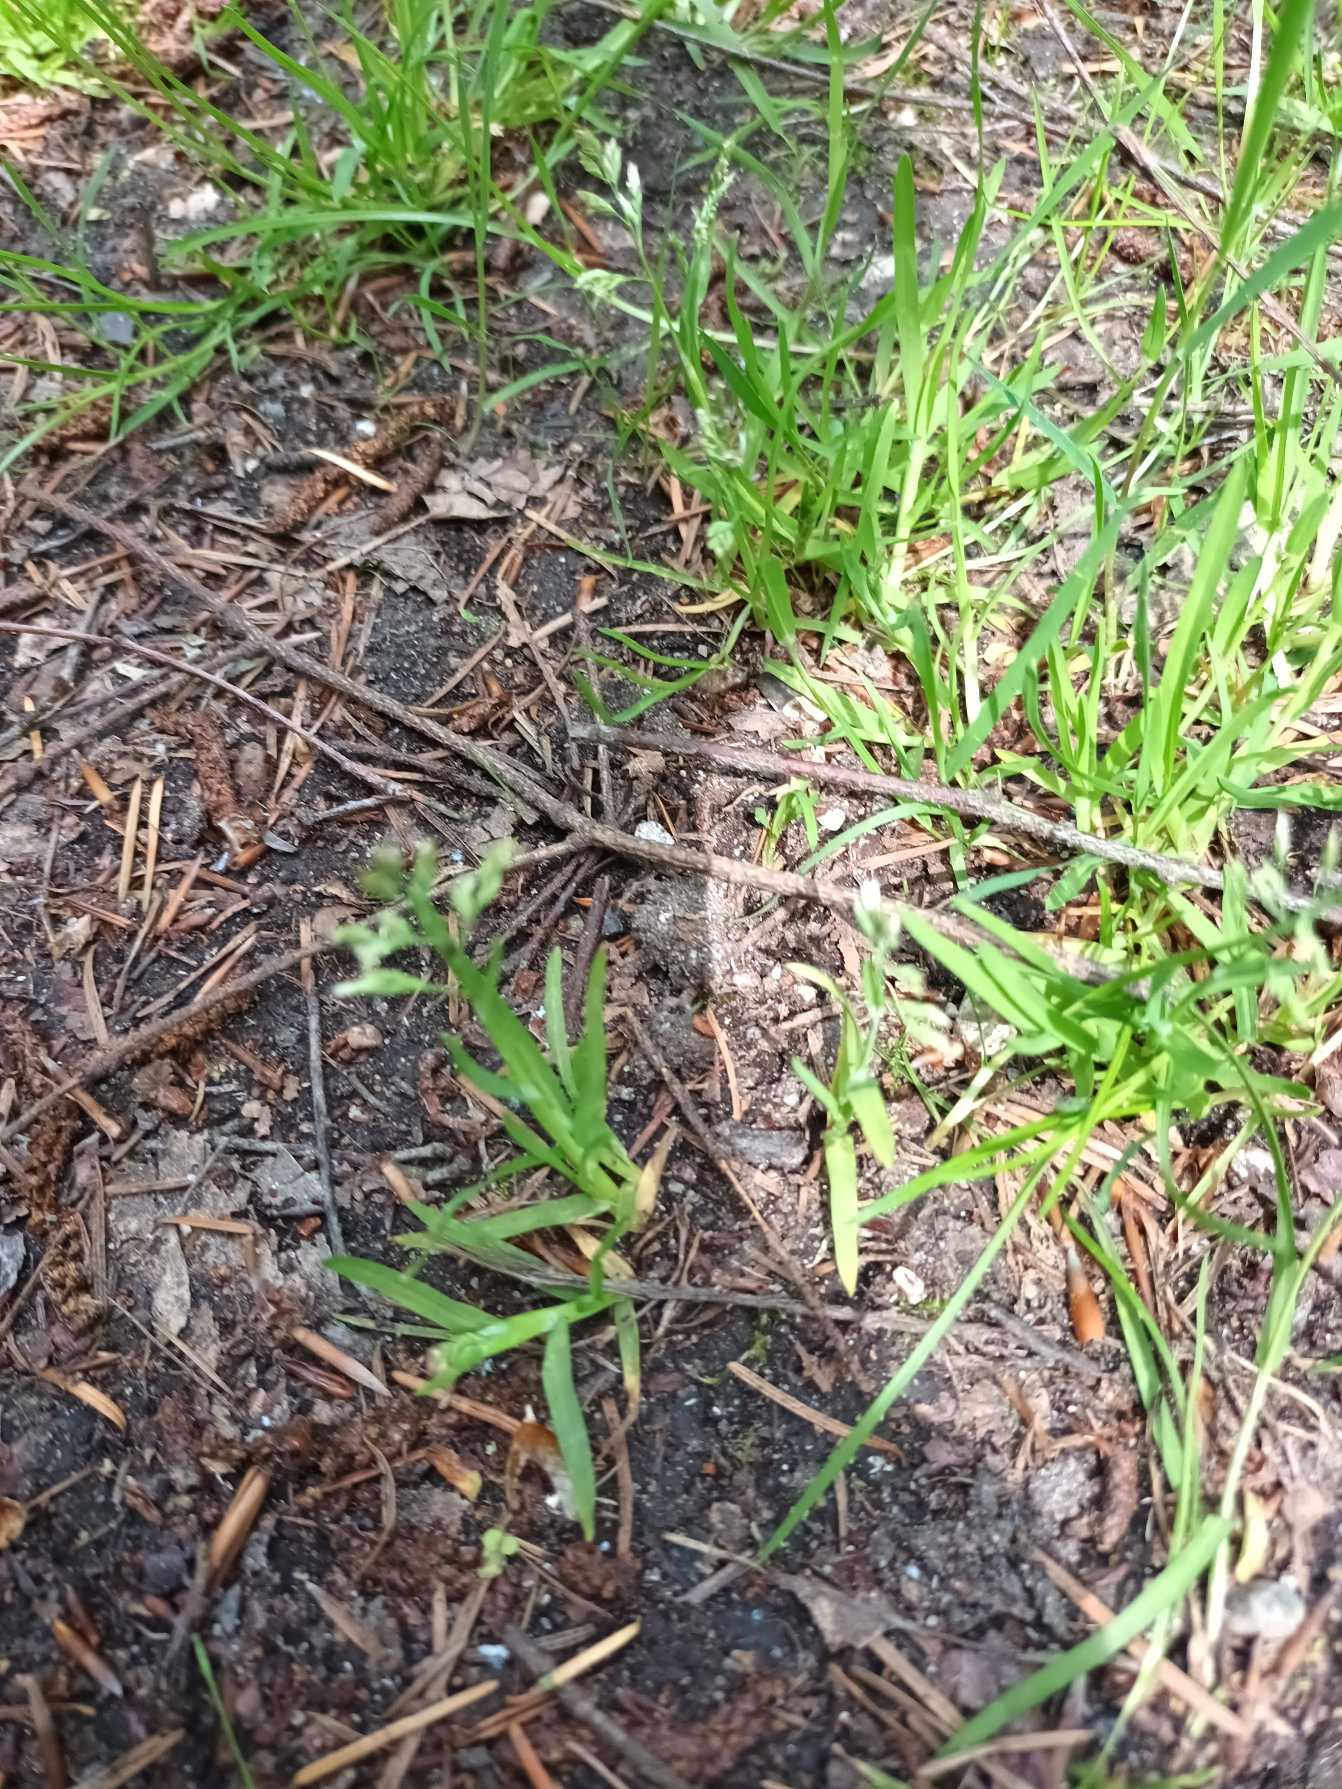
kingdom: Plantae
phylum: Tracheophyta
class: Liliopsida
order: Poales
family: Poaceae
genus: Poa
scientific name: Poa annua
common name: Enårig rapgræs
